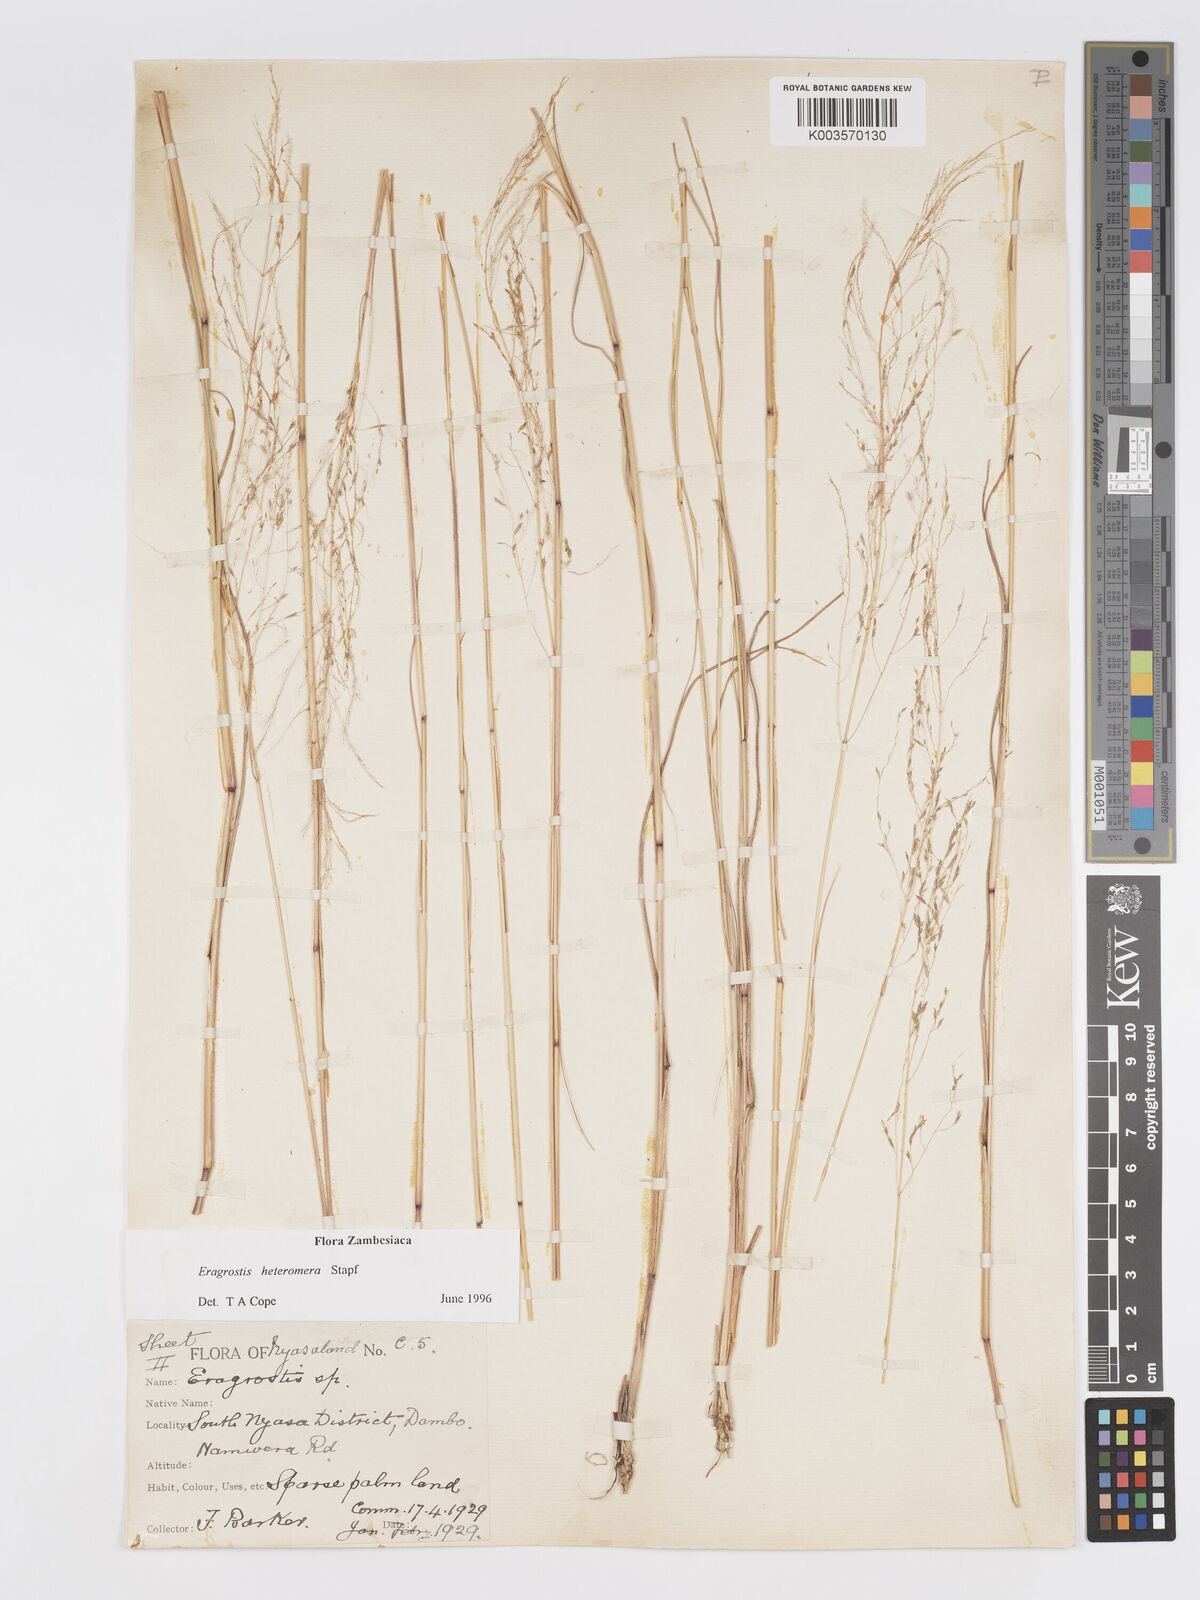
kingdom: Plantae
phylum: Tracheophyta
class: Liliopsida
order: Poales
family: Poaceae
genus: Eragrostis
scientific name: Eragrostis heteromera
